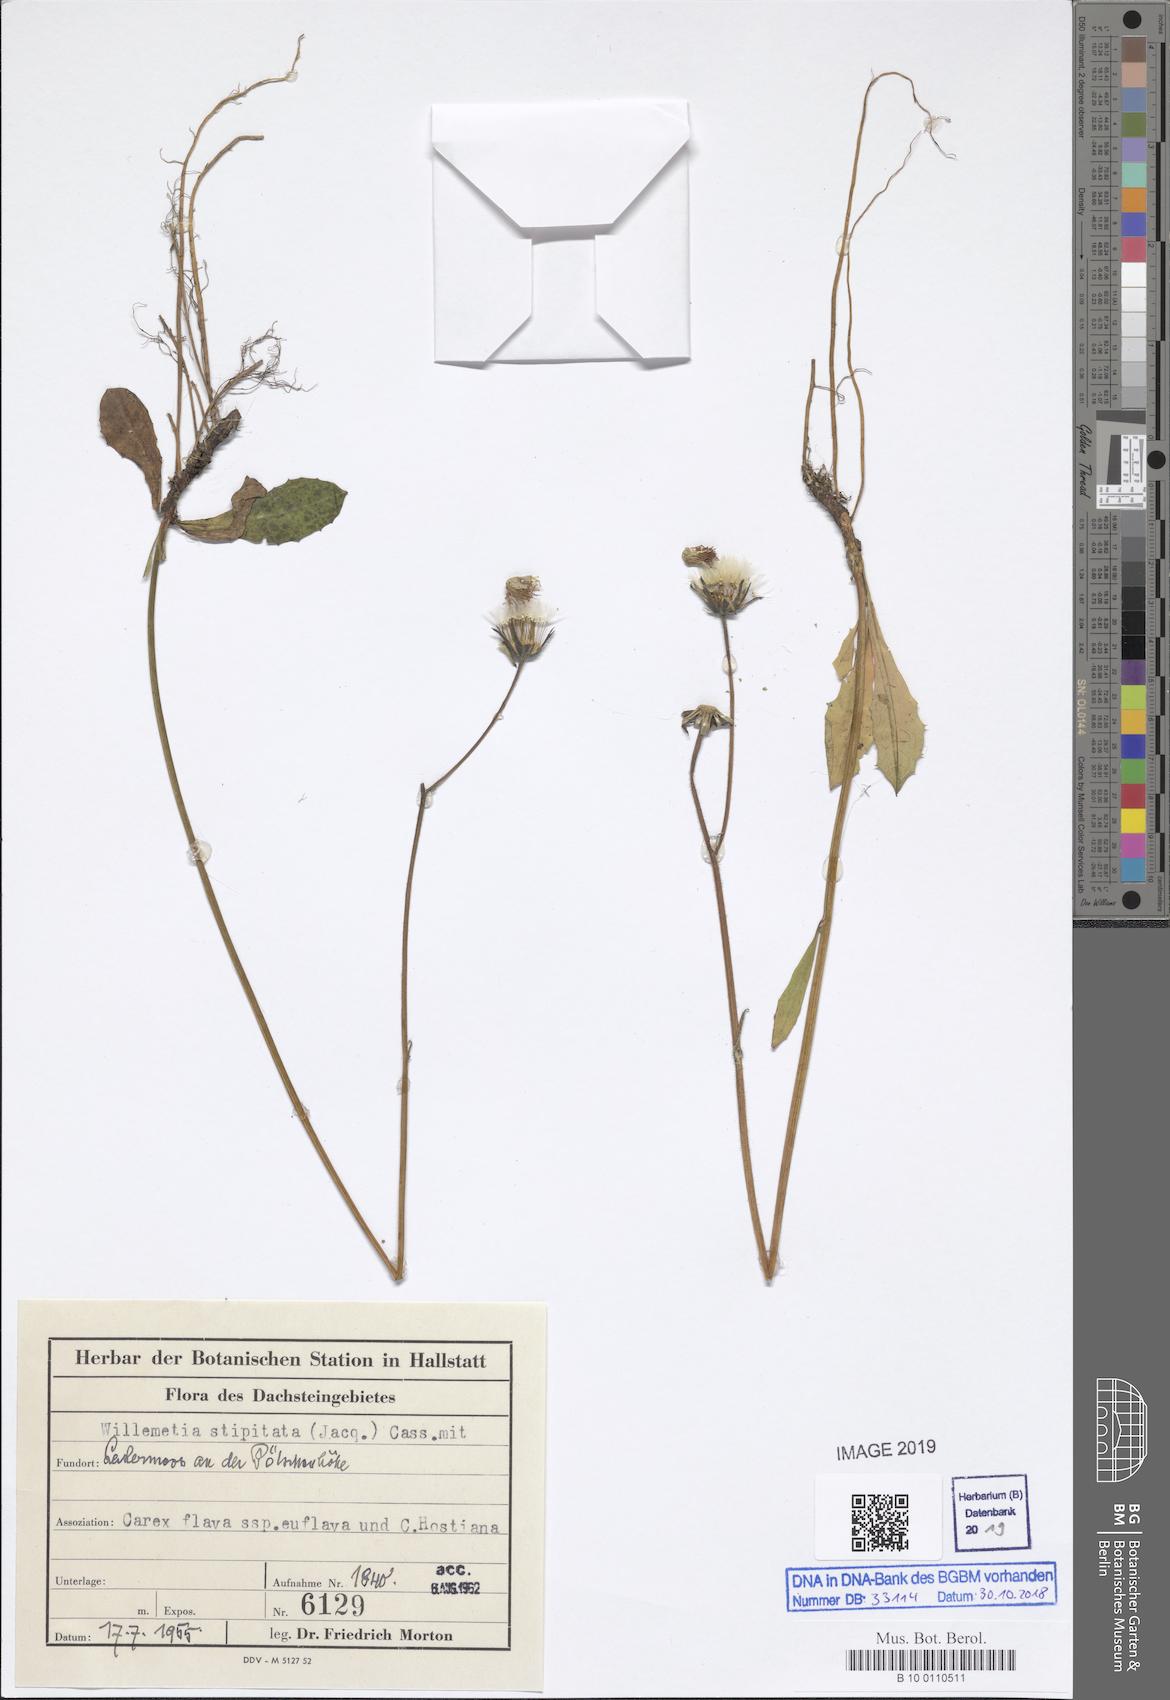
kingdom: Plantae
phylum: Tracheophyta
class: Magnoliopsida
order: Asterales
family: Asteraceae
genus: Willemetia
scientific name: Willemetia stipitata
